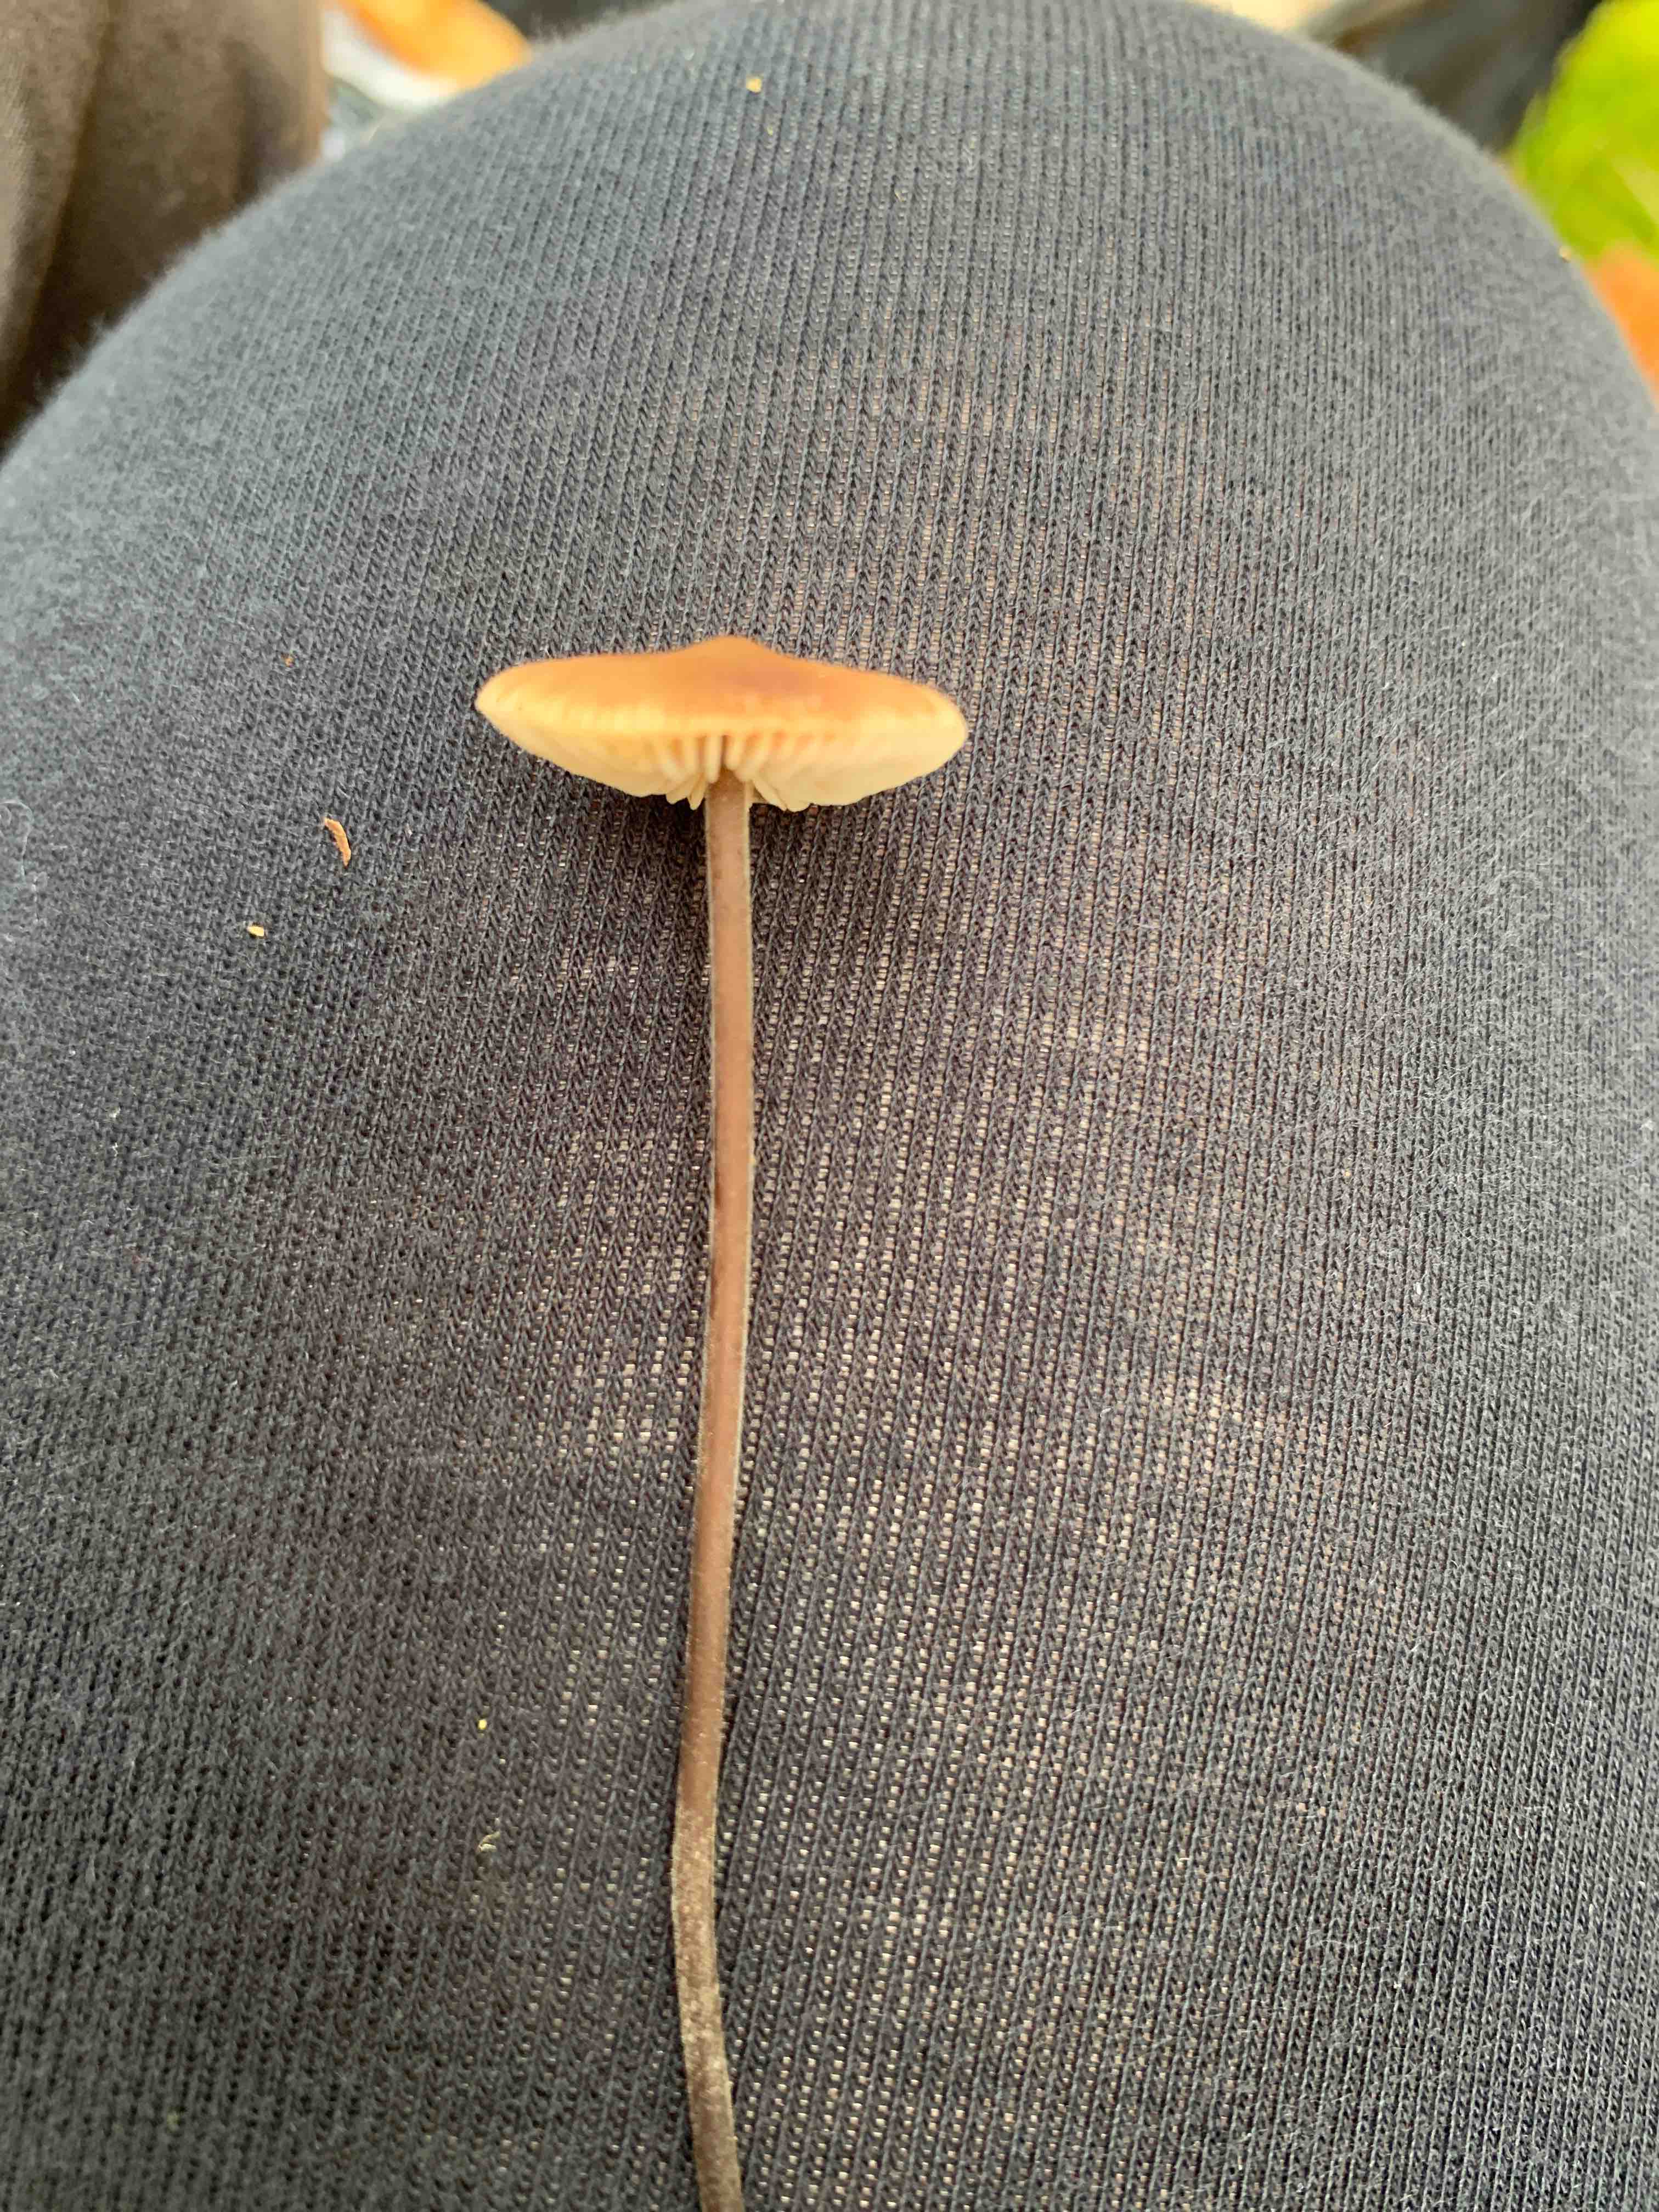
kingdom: Fungi
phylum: Basidiomycota
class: Agaricomycetes
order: Agaricales
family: Omphalotaceae
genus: Mycetinis
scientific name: Mycetinis alliaceus
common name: stor løghat
